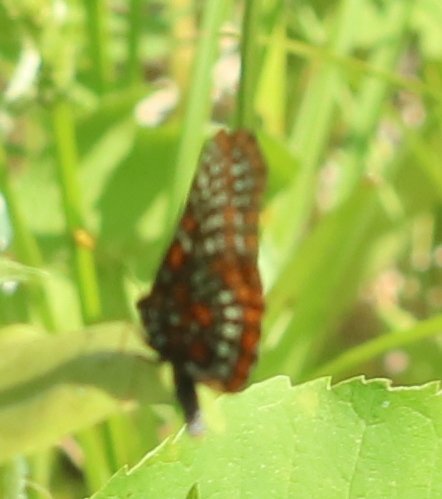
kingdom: Animalia
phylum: Arthropoda
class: Insecta
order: Lepidoptera
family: Nymphalidae
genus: Euphydryas
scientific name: Euphydryas phaeton
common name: Baltimore Checkerspot
